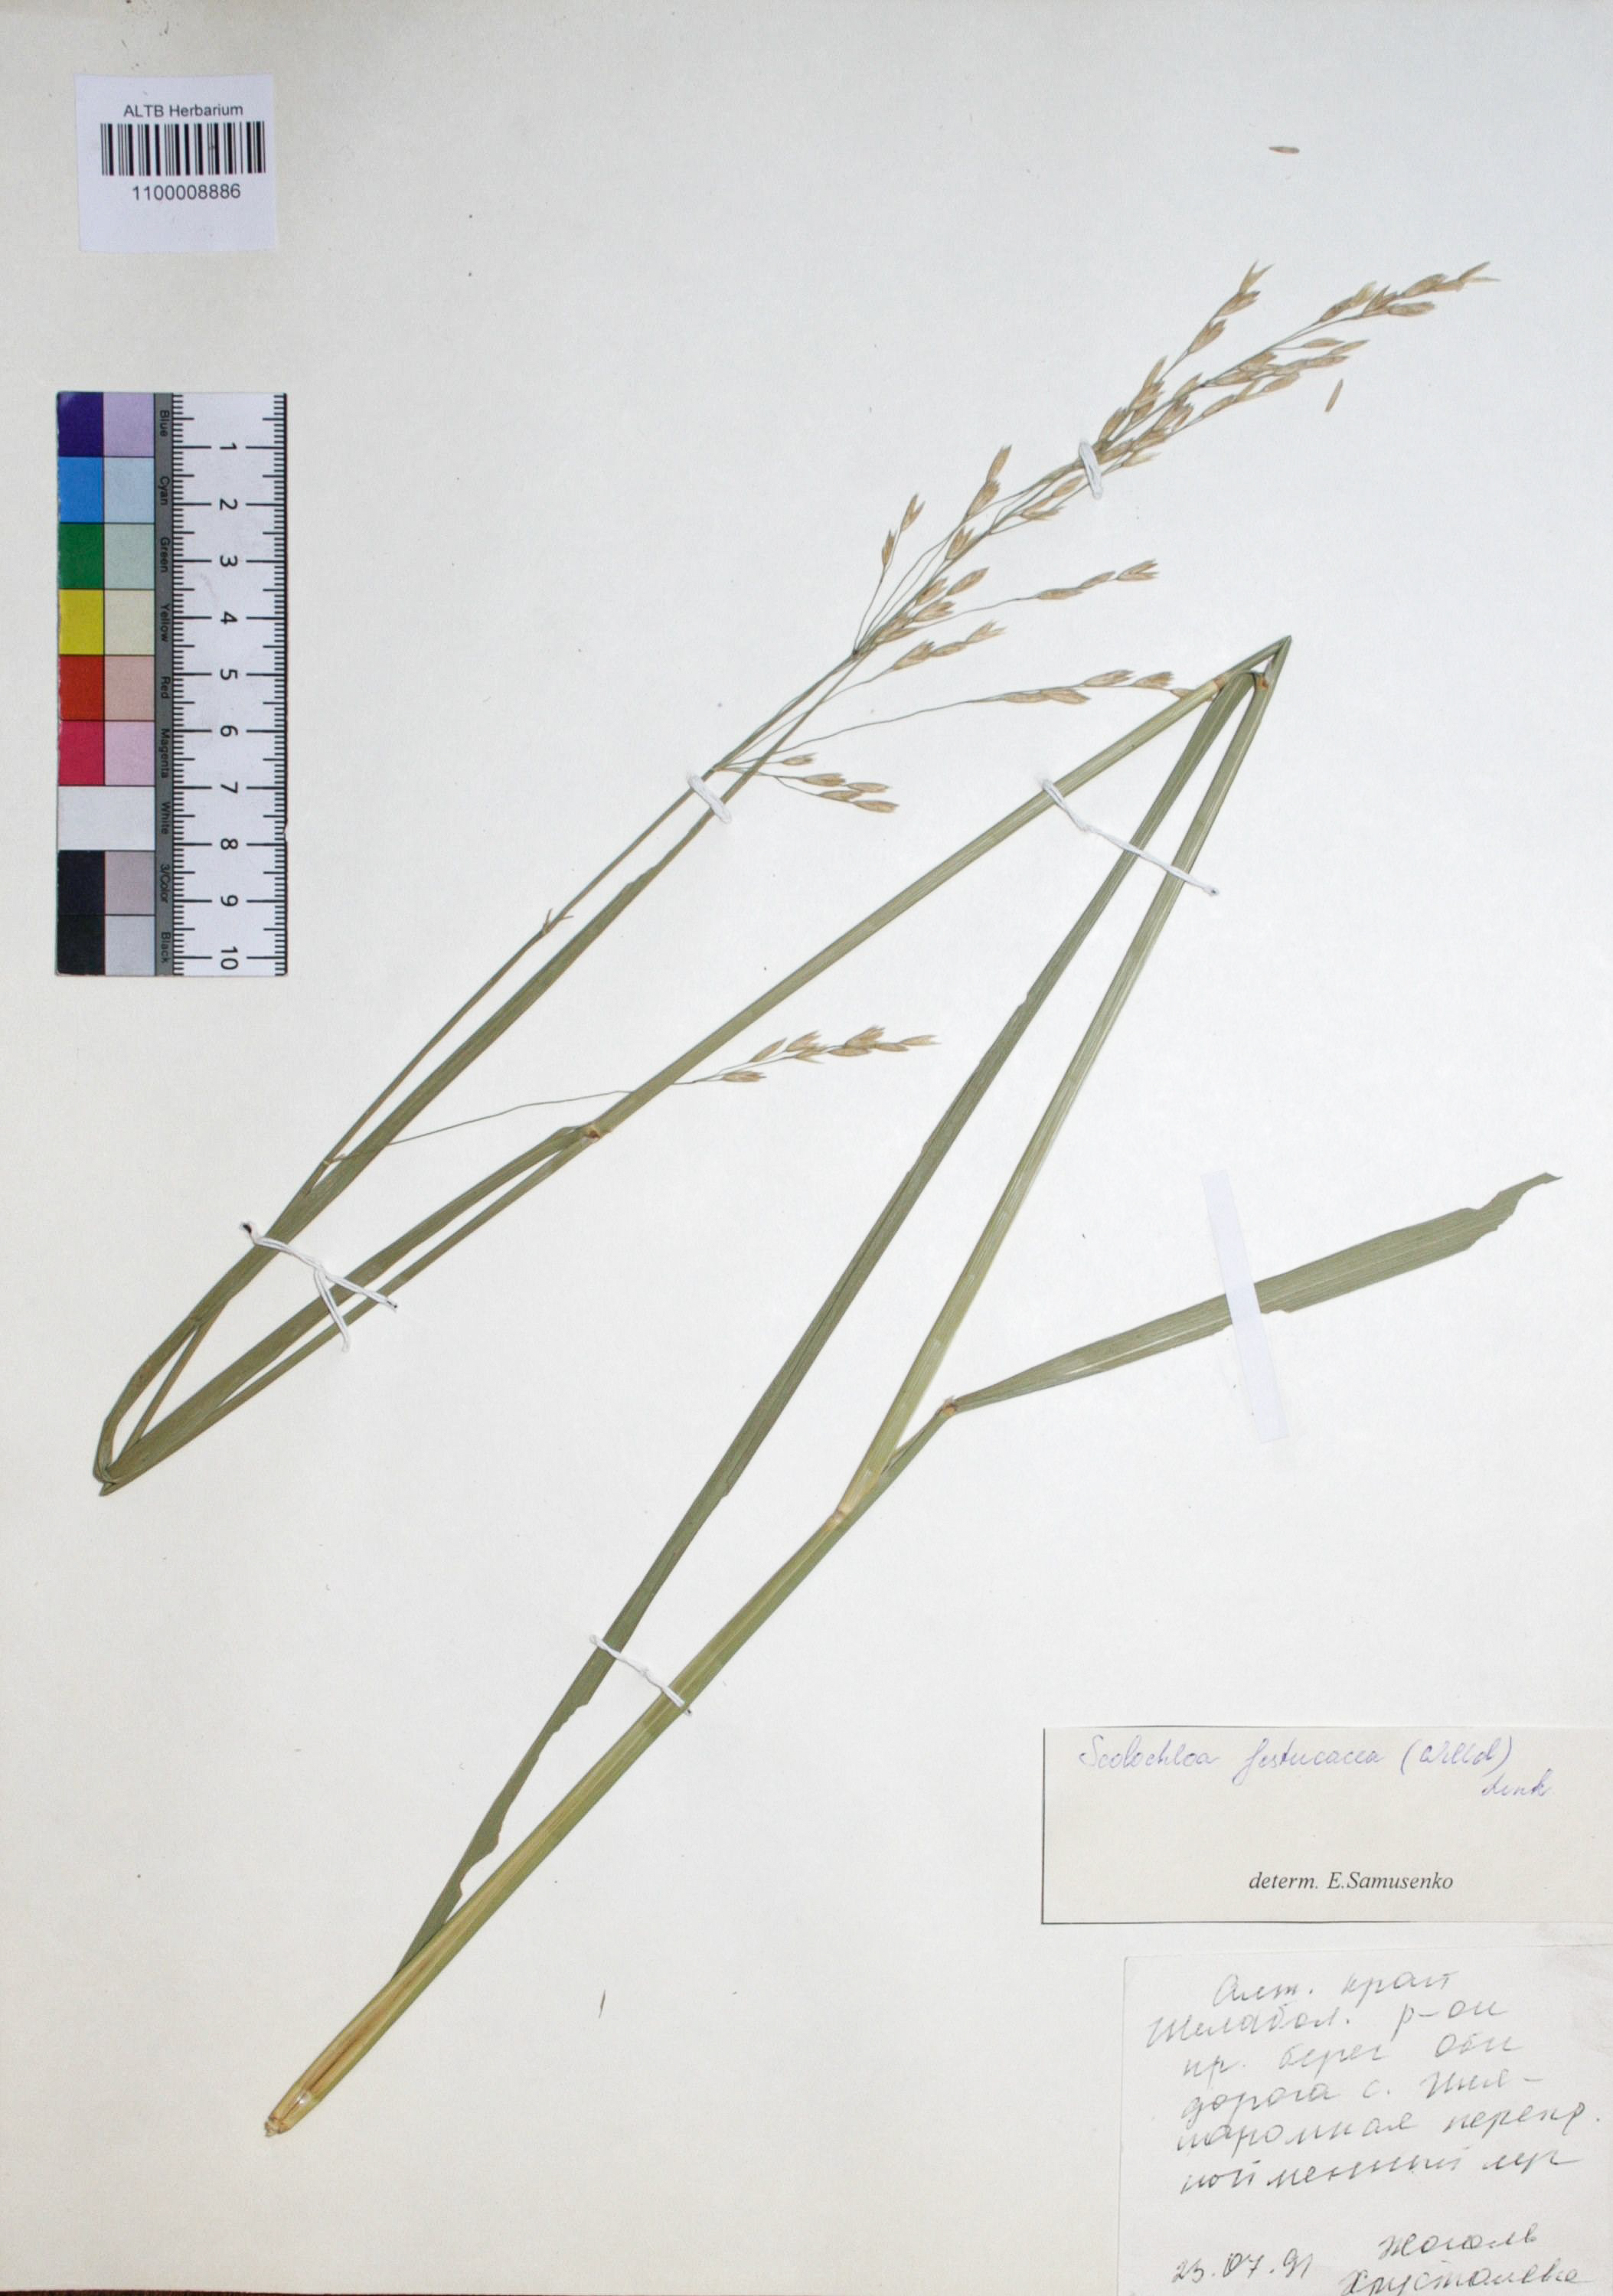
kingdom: Plantae
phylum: Tracheophyta
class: Liliopsida
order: Poales
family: Poaceae
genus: Scolochloa
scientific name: Scolochloa festucacea
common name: Common rivergrass
